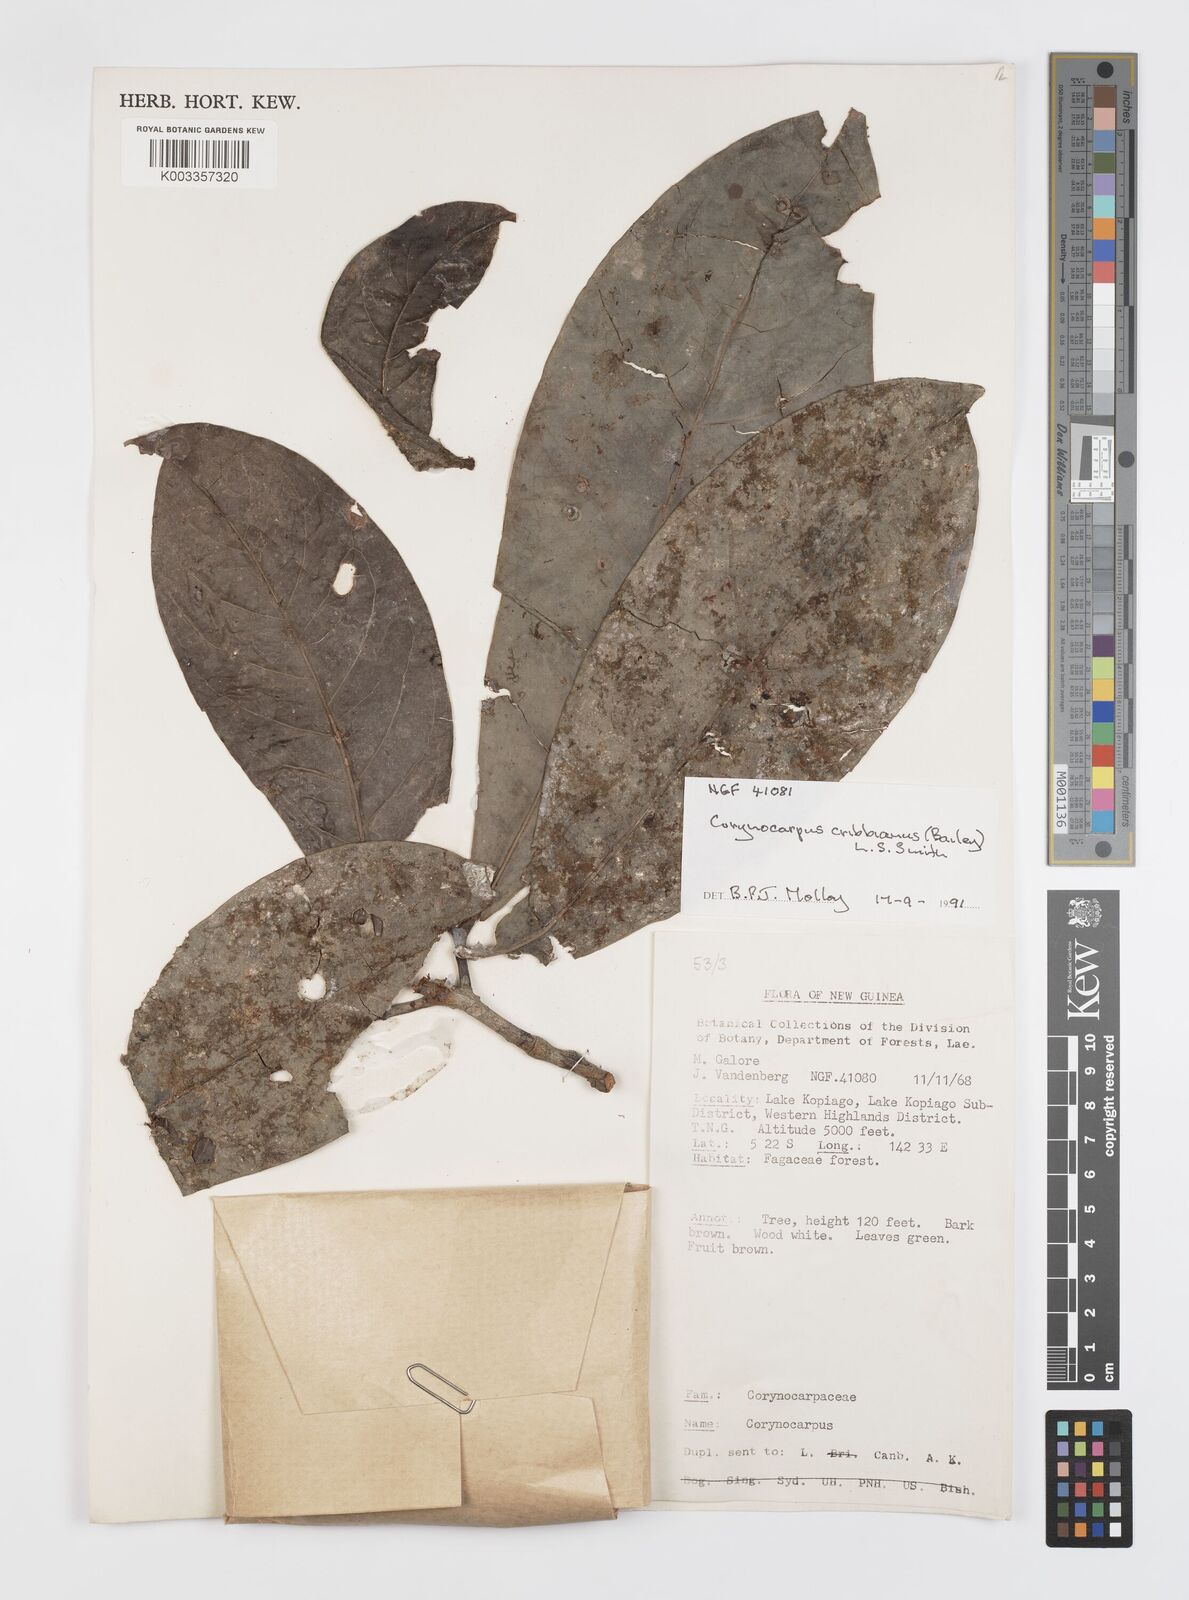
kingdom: Plantae
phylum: Tracheophyta
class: Magnoliopsida
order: Cucurbitales
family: Corynocarpaceae
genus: Corynocarpus
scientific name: Corynocarpus cribbianus
